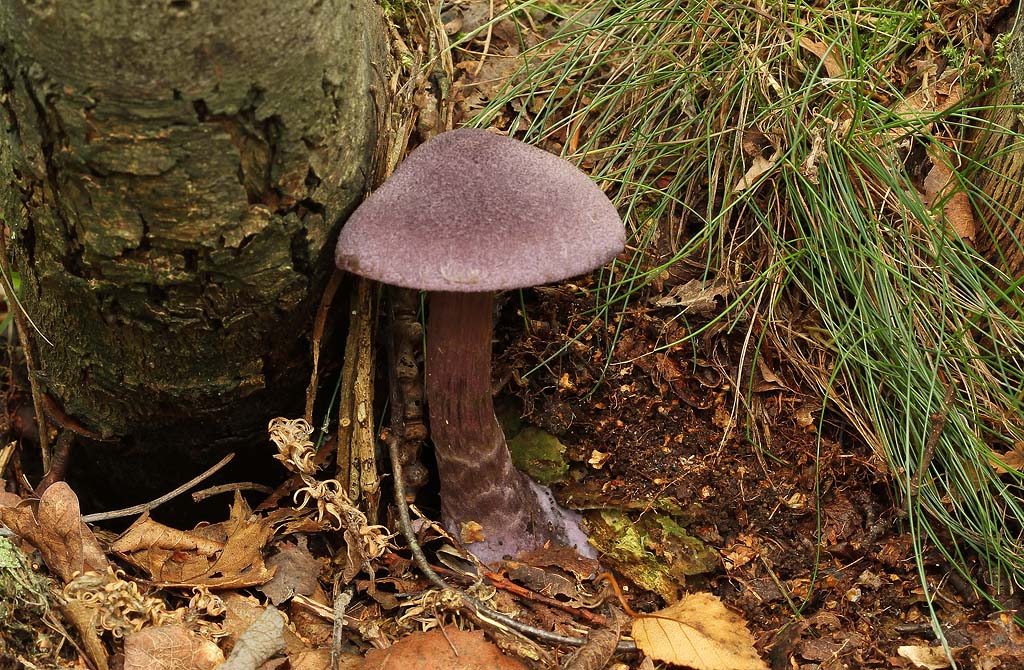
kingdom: Fungi
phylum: Basidiomycota
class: Agaricomycetes
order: Agaricales
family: Cortinariaceae
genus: Cortinarius
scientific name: Cortinarius violaceus
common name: mørkviolet slørhat
